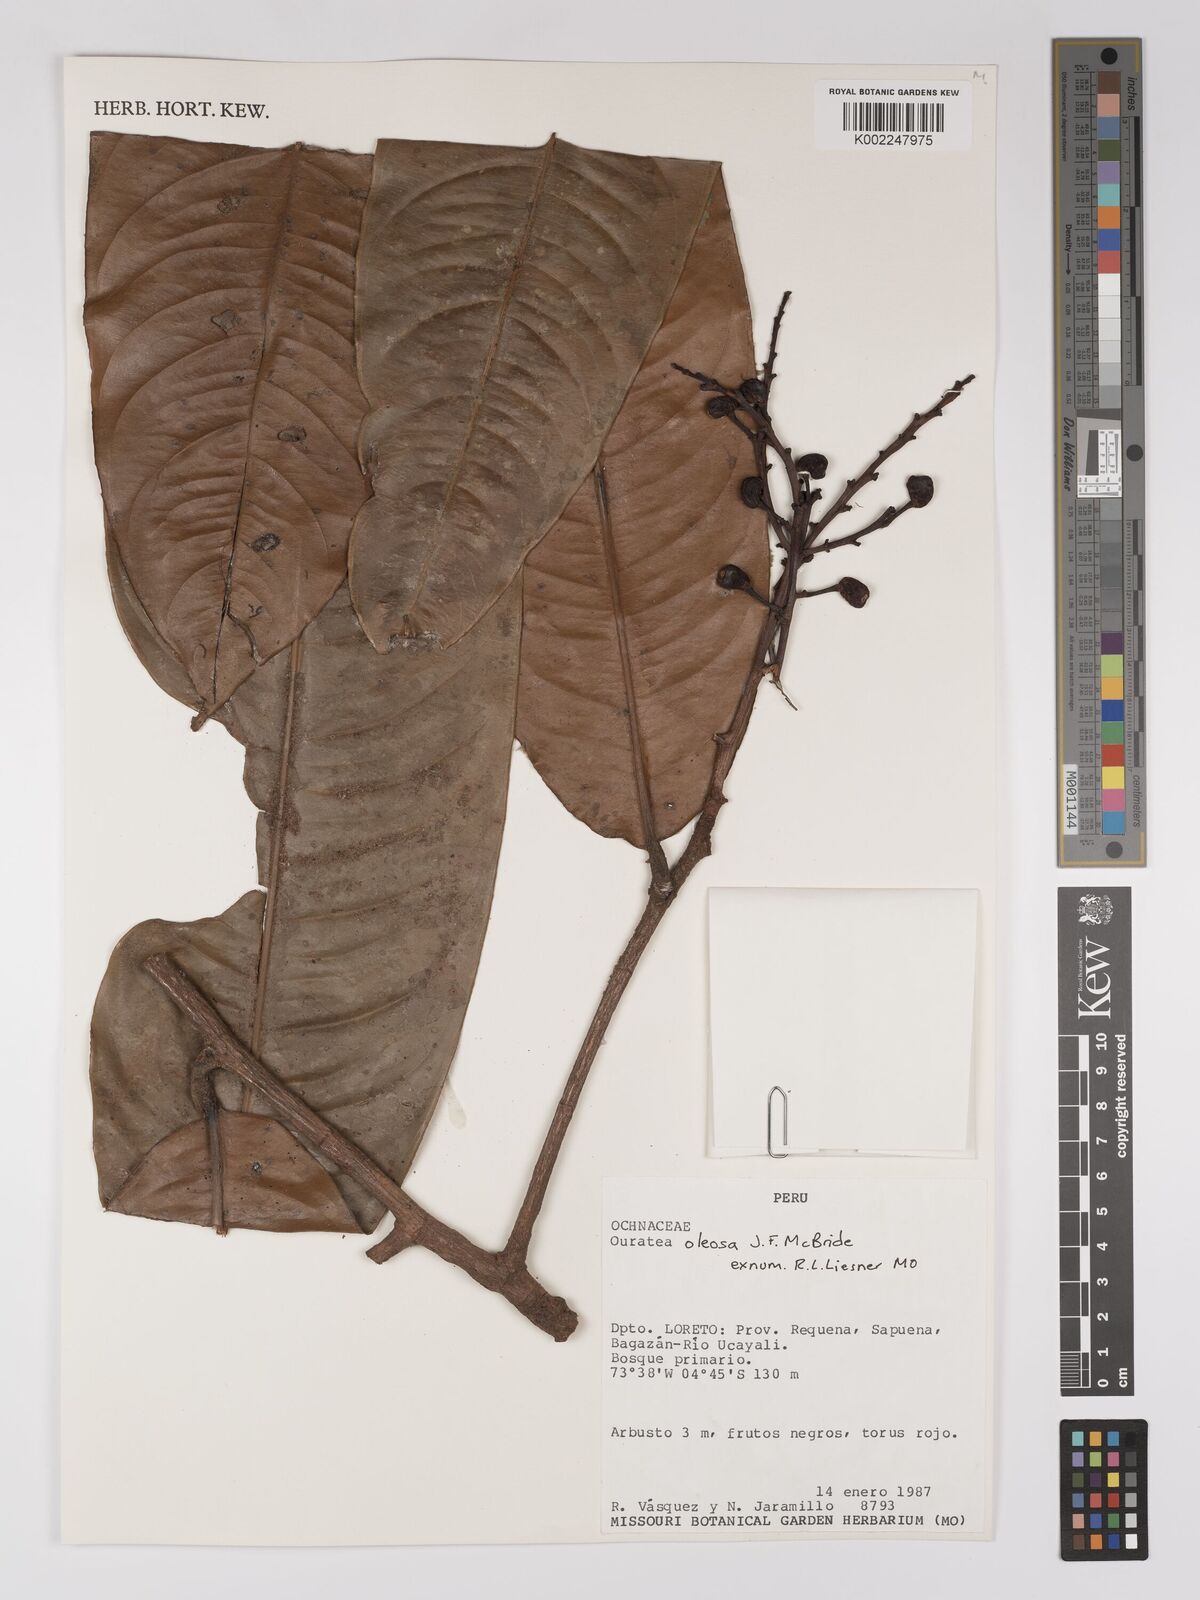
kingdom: Plantae
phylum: Tracheophyta
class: Magnoliopsida
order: Malpighiales
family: Ochnaceae
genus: Ouratea
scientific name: Ouratea oleosa
